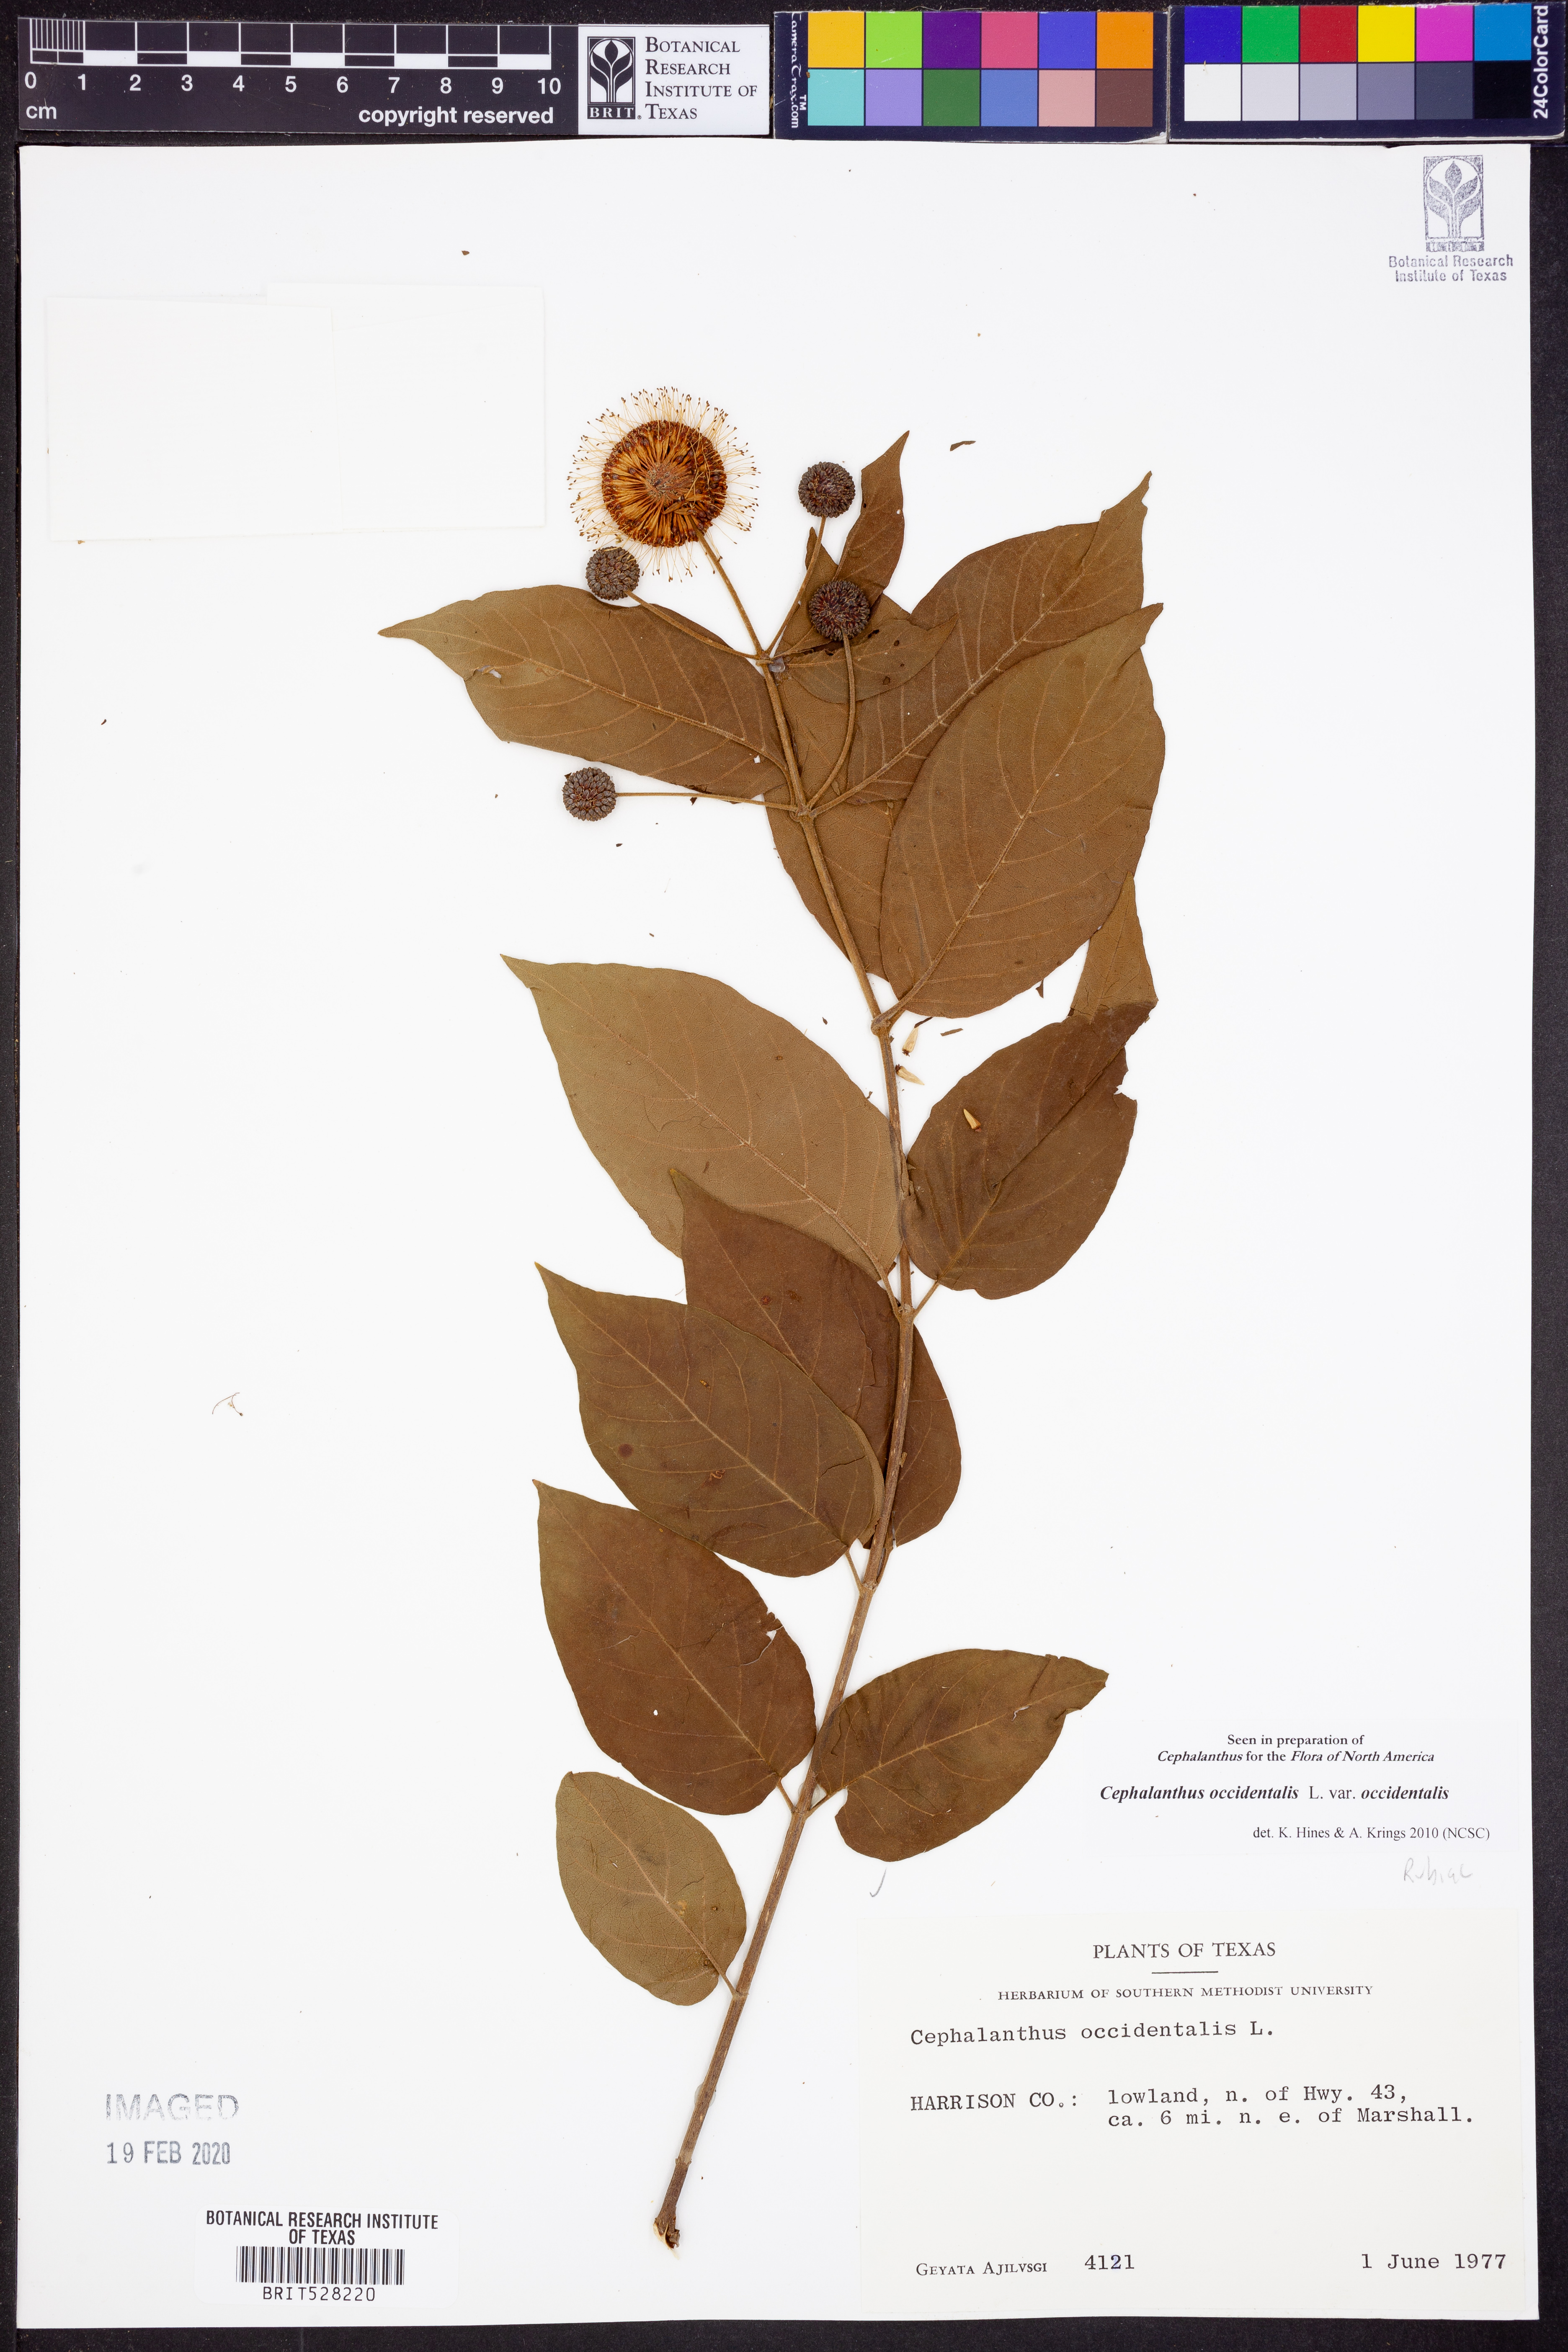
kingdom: Plantae
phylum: Tracheophyta
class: Magnoliopsida
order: Gentianales
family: Rubiaceae
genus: Cephalanthus
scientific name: Cephalanthus occidentalis
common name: Button-willow
